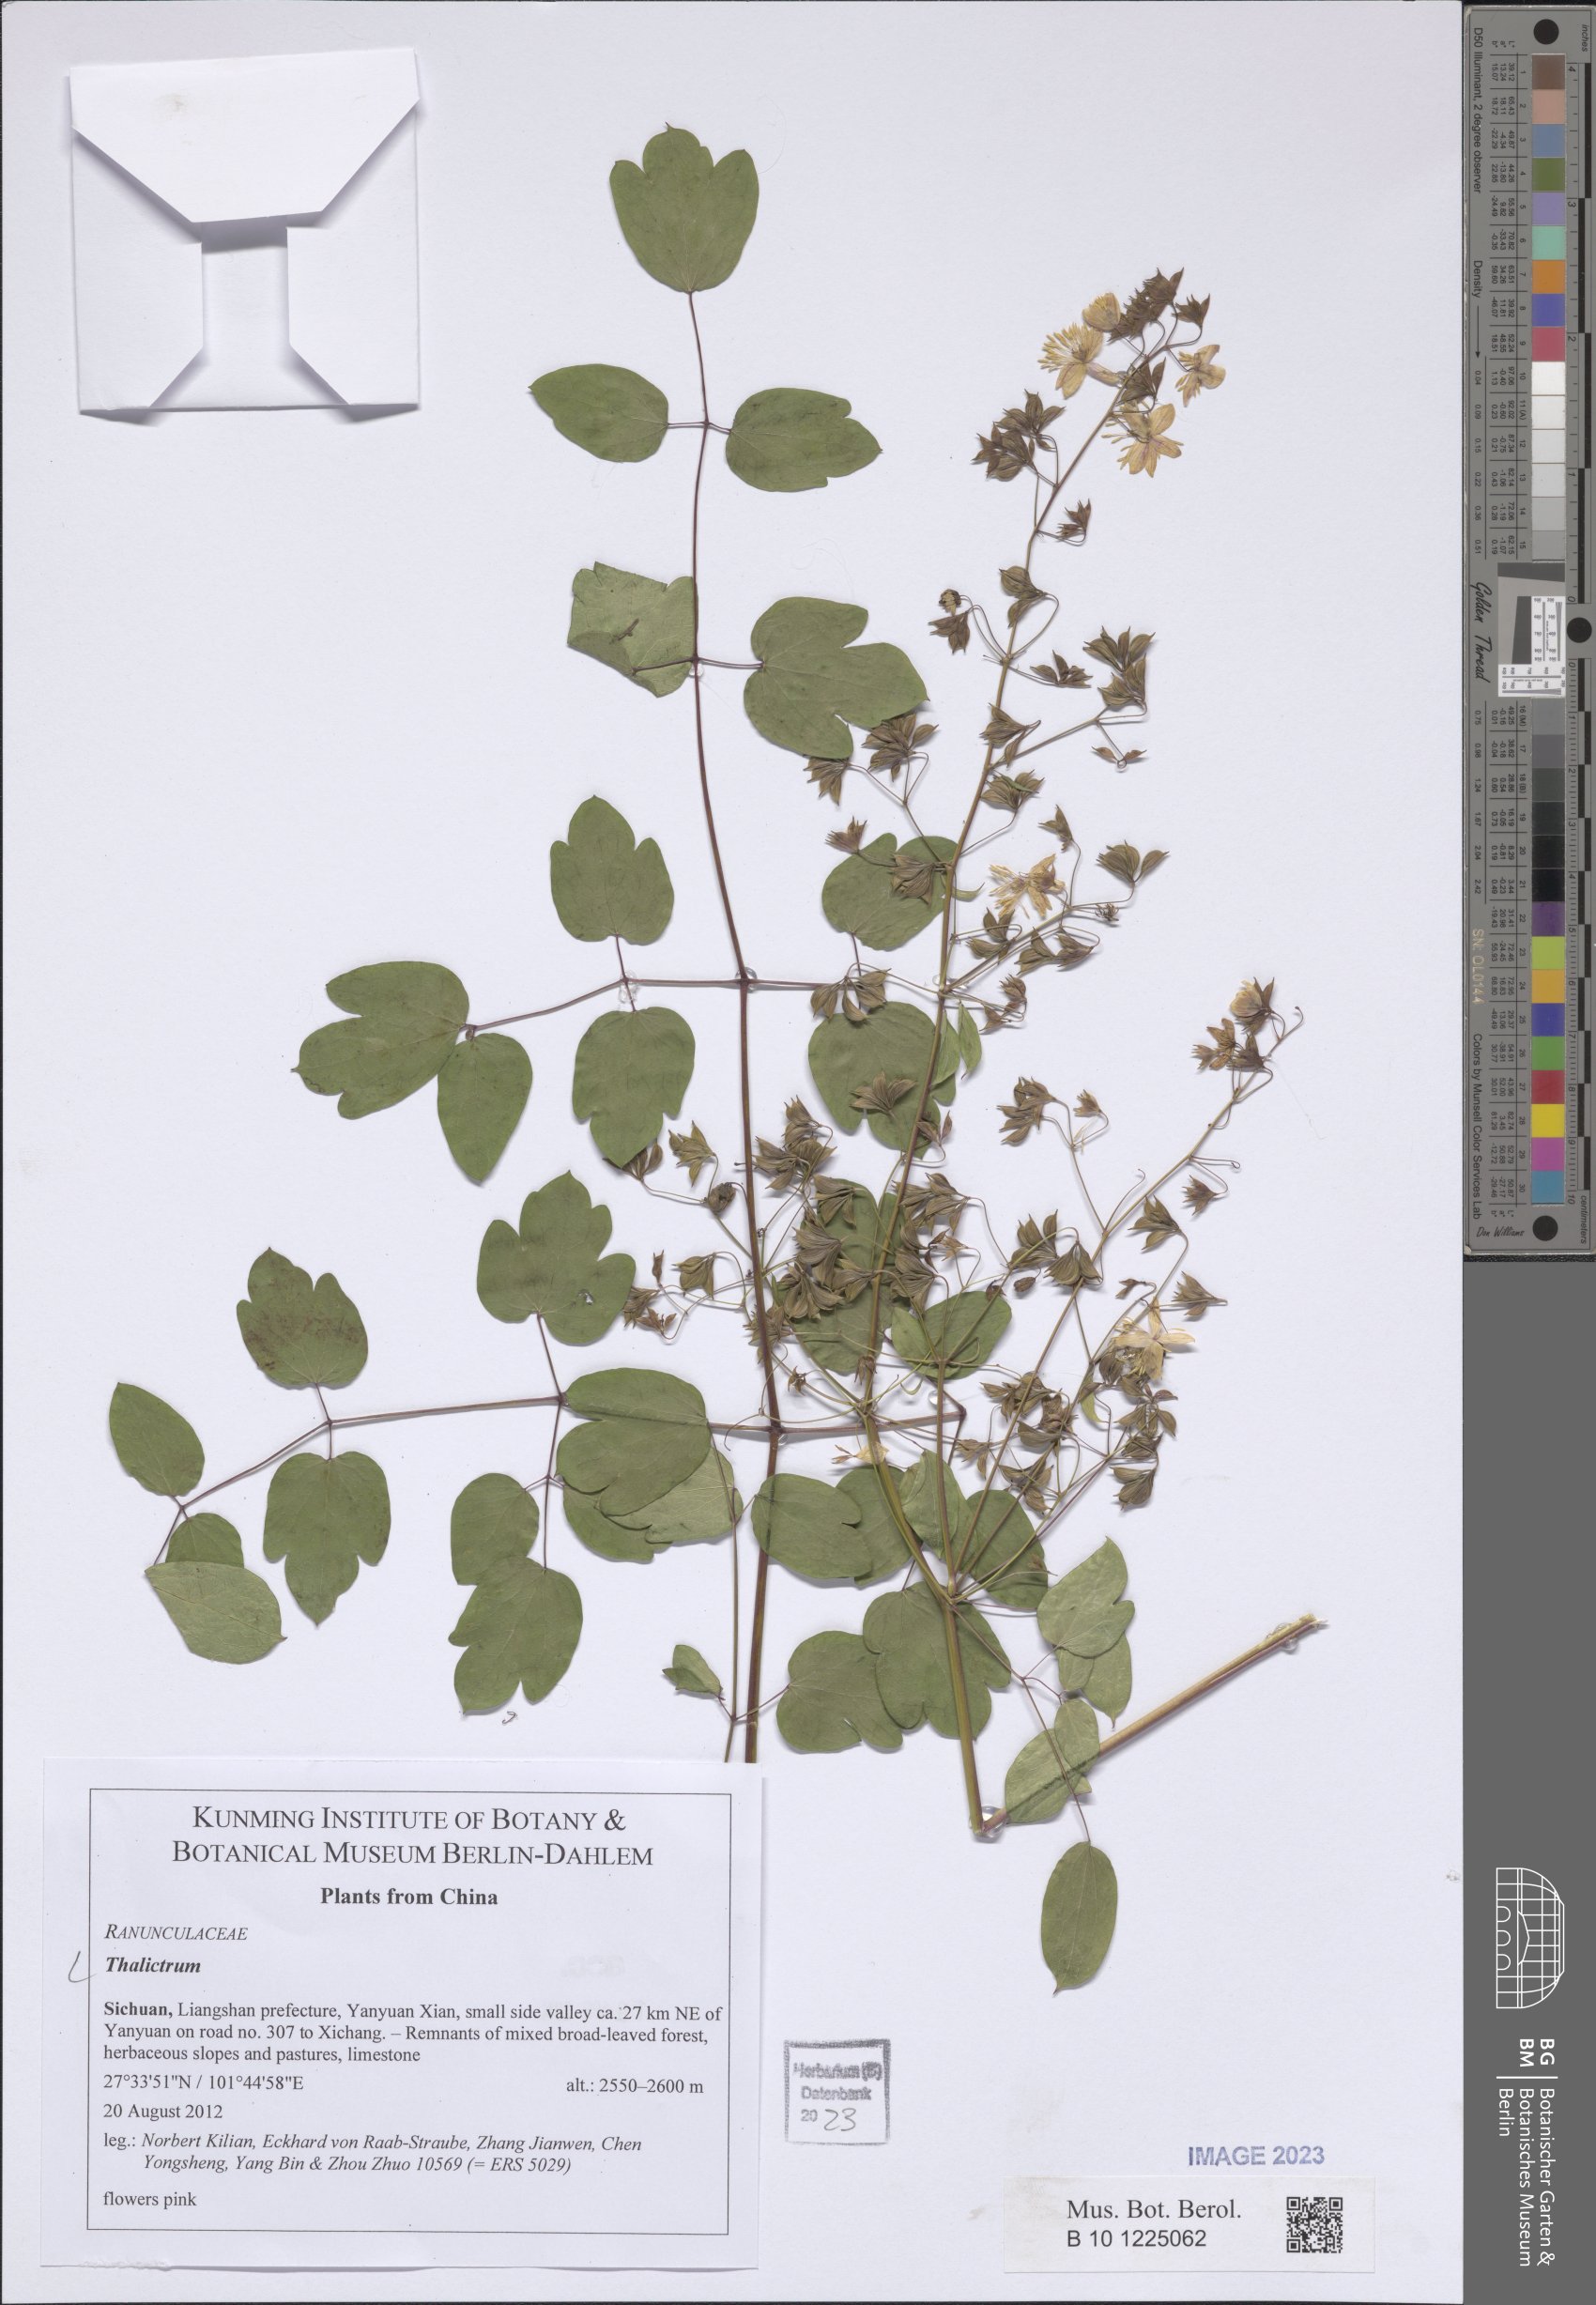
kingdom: Plantae
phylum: Tracheophyta
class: Magnoliopsida
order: Ranunculales
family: Ranunculaceae
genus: Thalictrum
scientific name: Thalictrum
